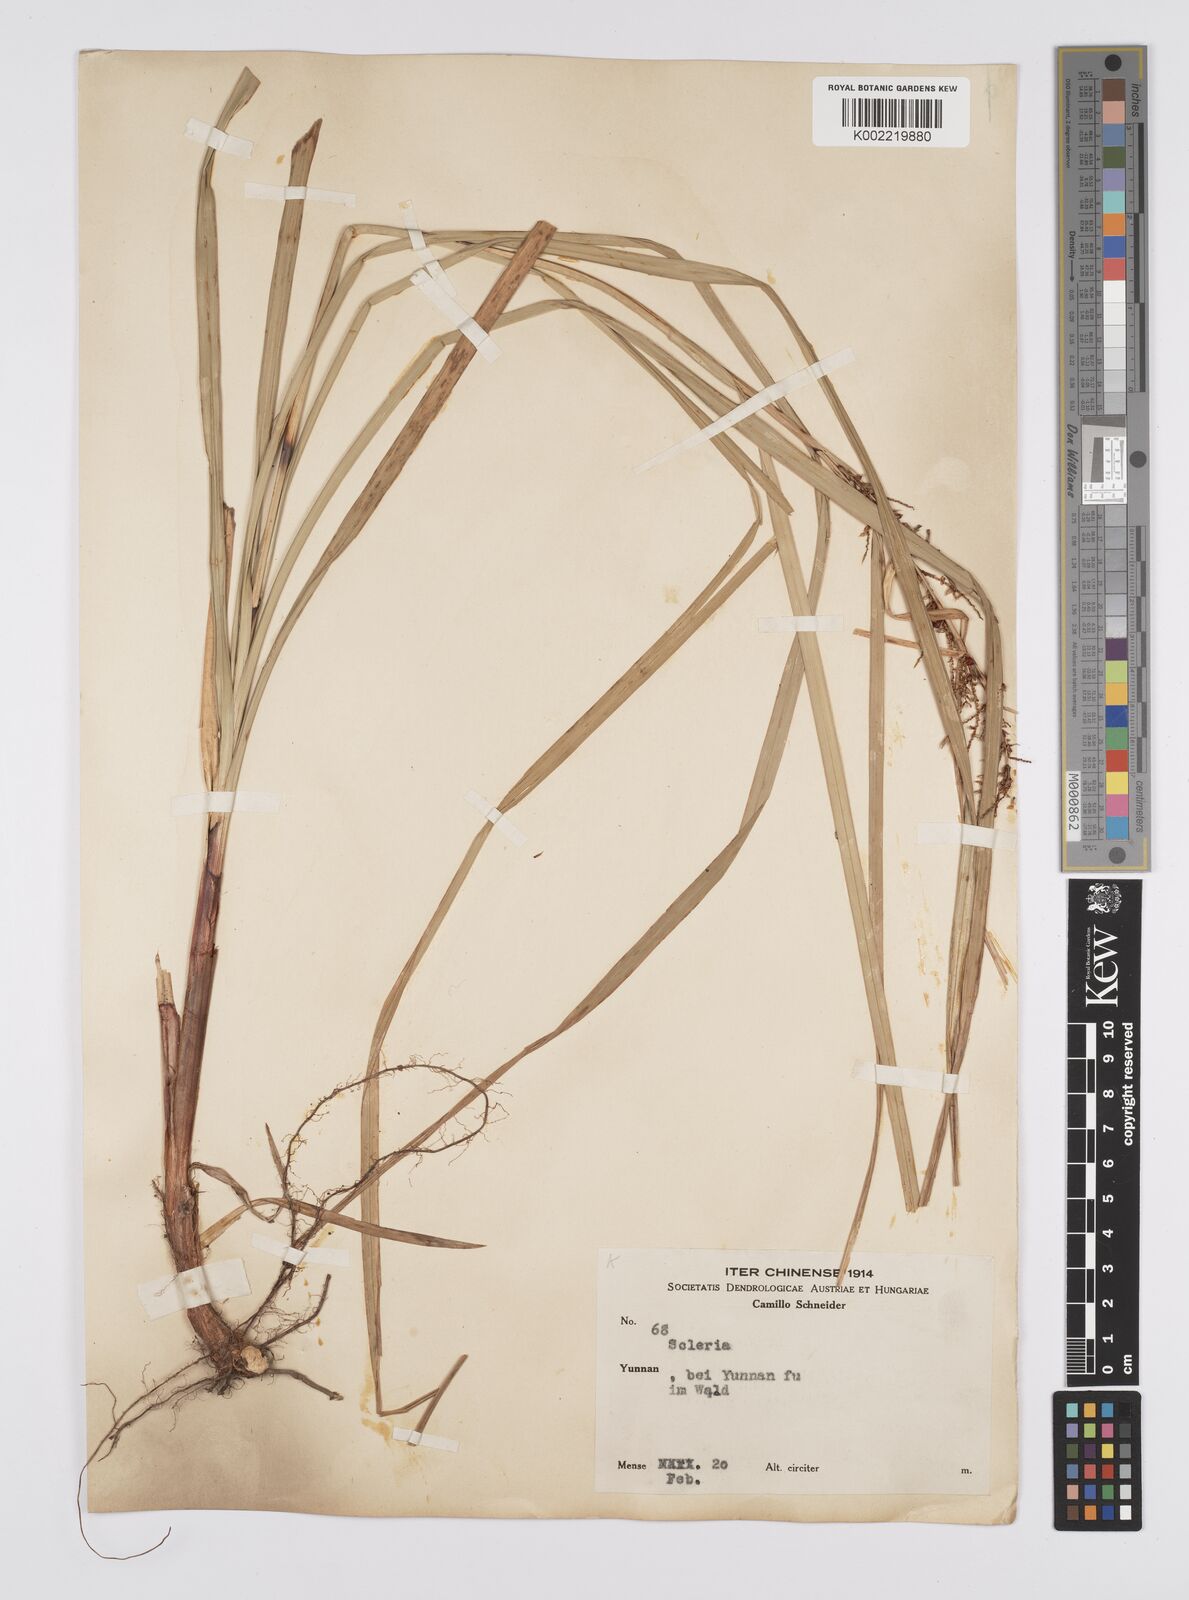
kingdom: Plantae
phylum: Tracheophyta
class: Liliopsida
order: Poales
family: Cyperaceae
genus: Carex
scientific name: Carex baccans
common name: Crimson seeded sedge
